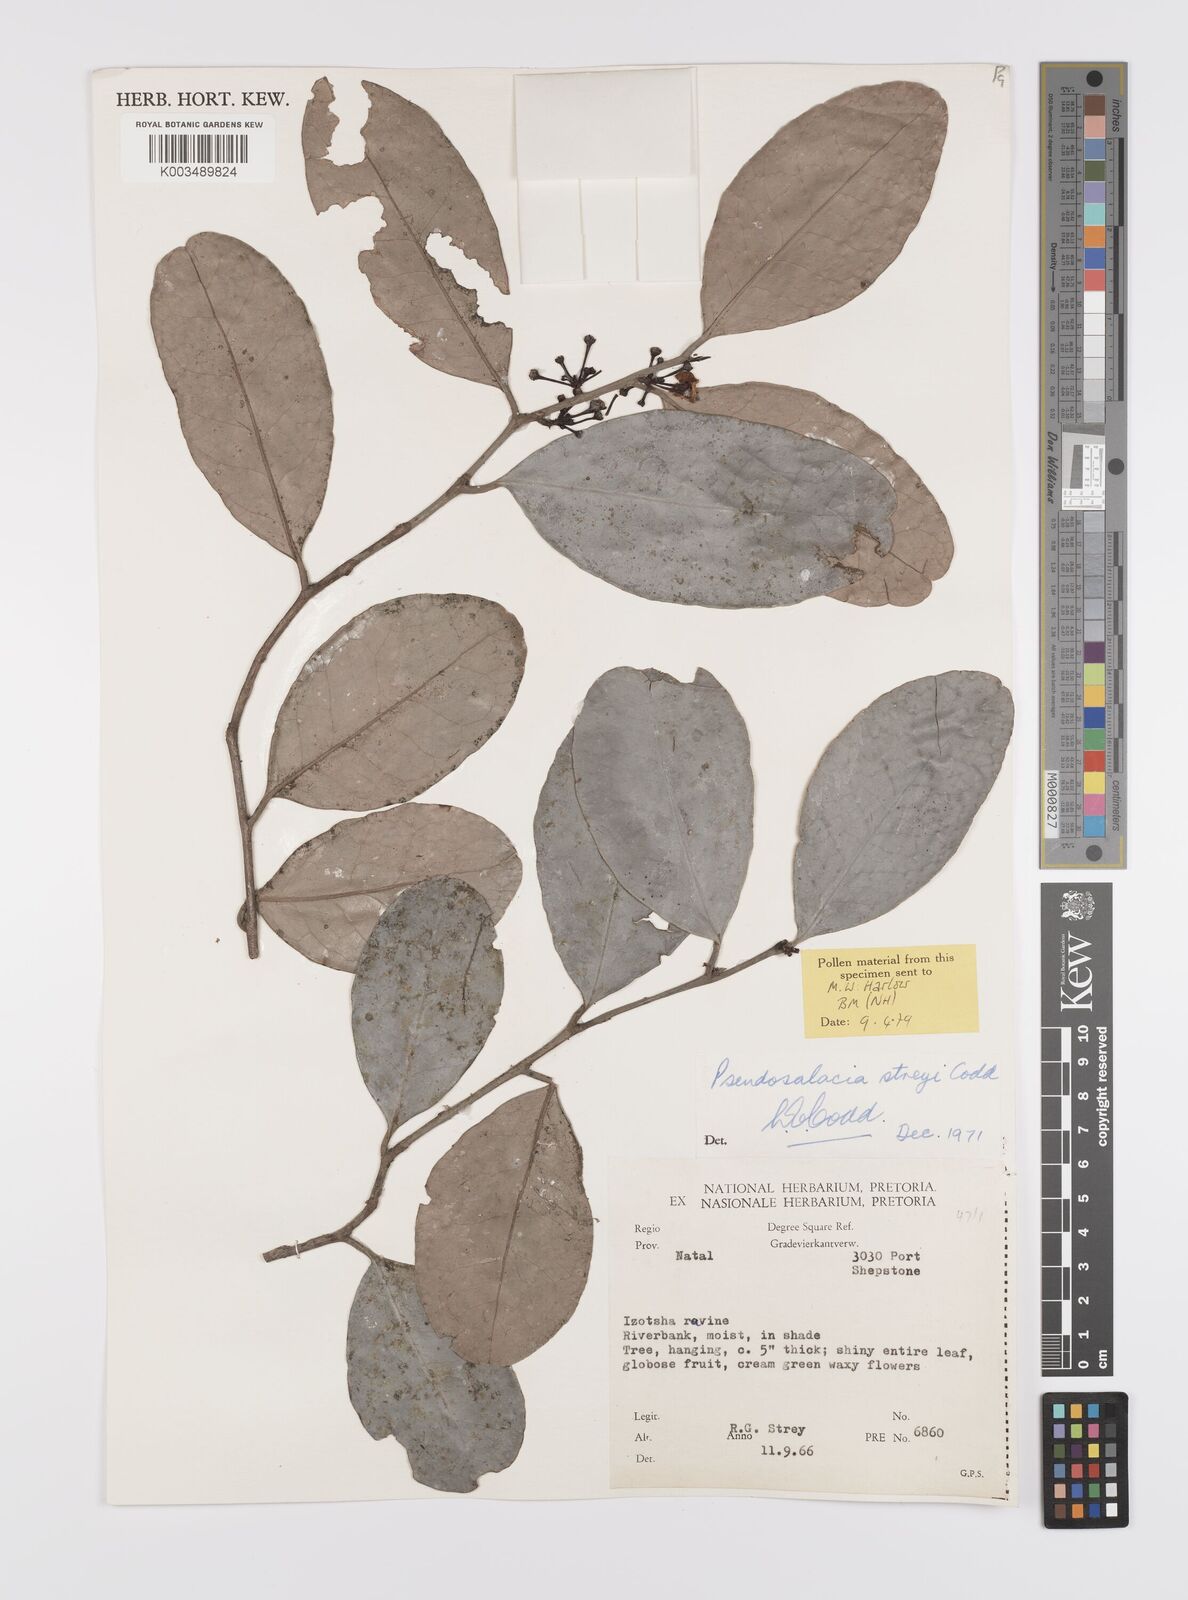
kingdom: Plantae
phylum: Tracheophyta
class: Magnoliopsida
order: Celastrales
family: Celastraceae
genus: Pseudosalacia
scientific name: Pseudosalacia streyi
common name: Bastard lemon
